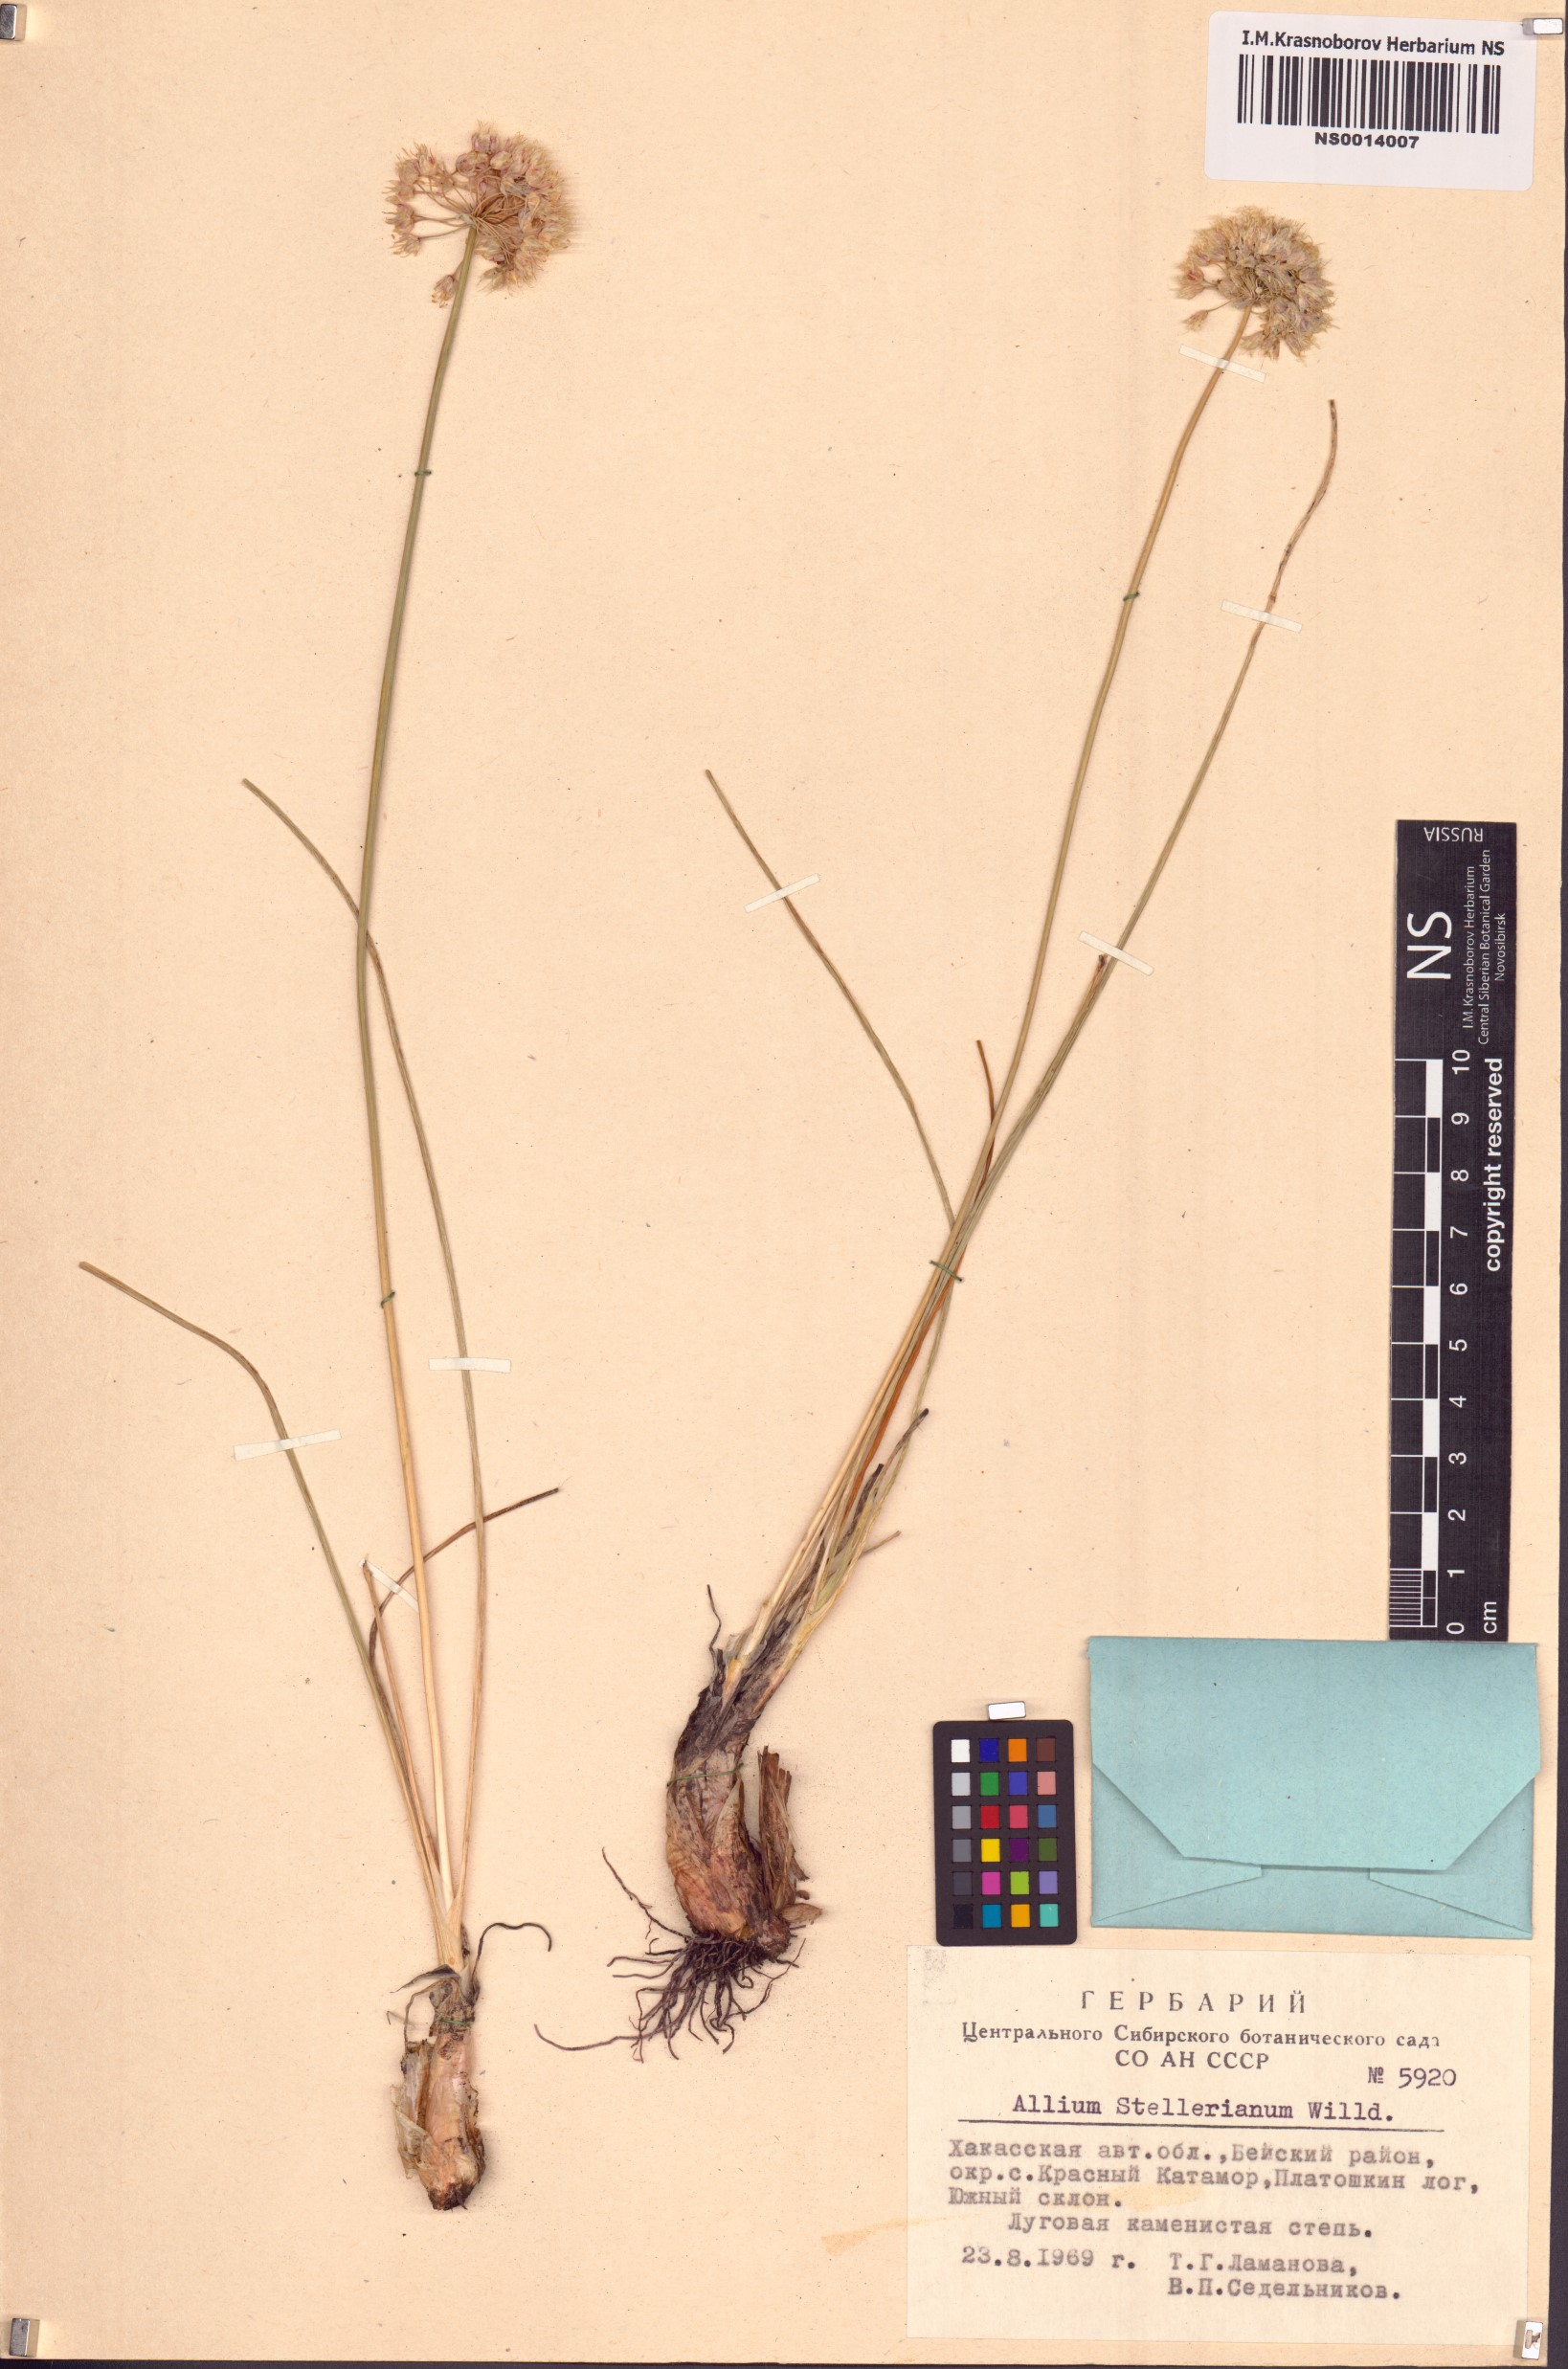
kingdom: Plantae
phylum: Tracheophyta
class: Liliopsida
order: Asparagales
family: Amaryllidaceae
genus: Allium
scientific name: Allium stellerianum
